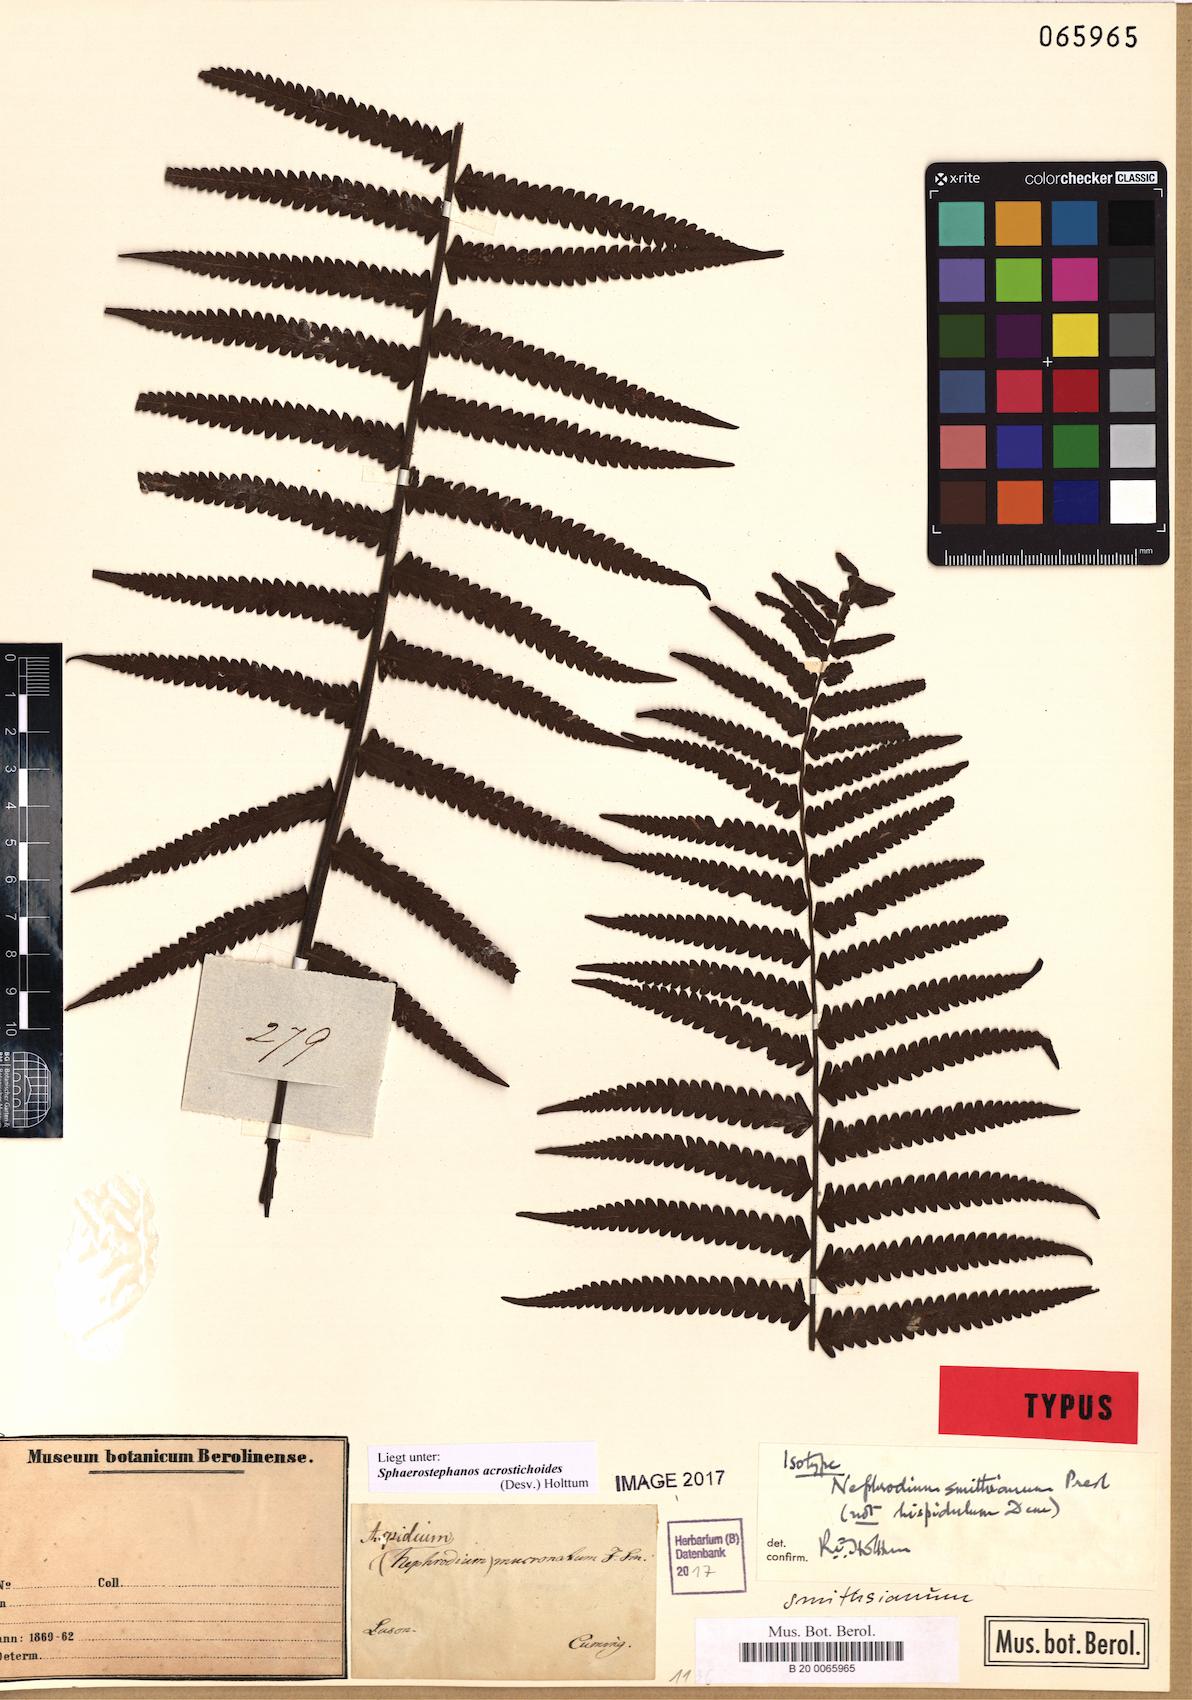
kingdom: Plantae
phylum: Tracheophyta
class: Polypodiopsida
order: Polypodiales
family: Thelypteridaceae
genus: Sphaerostephanos
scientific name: Sphaerostephanos acrostichoides
